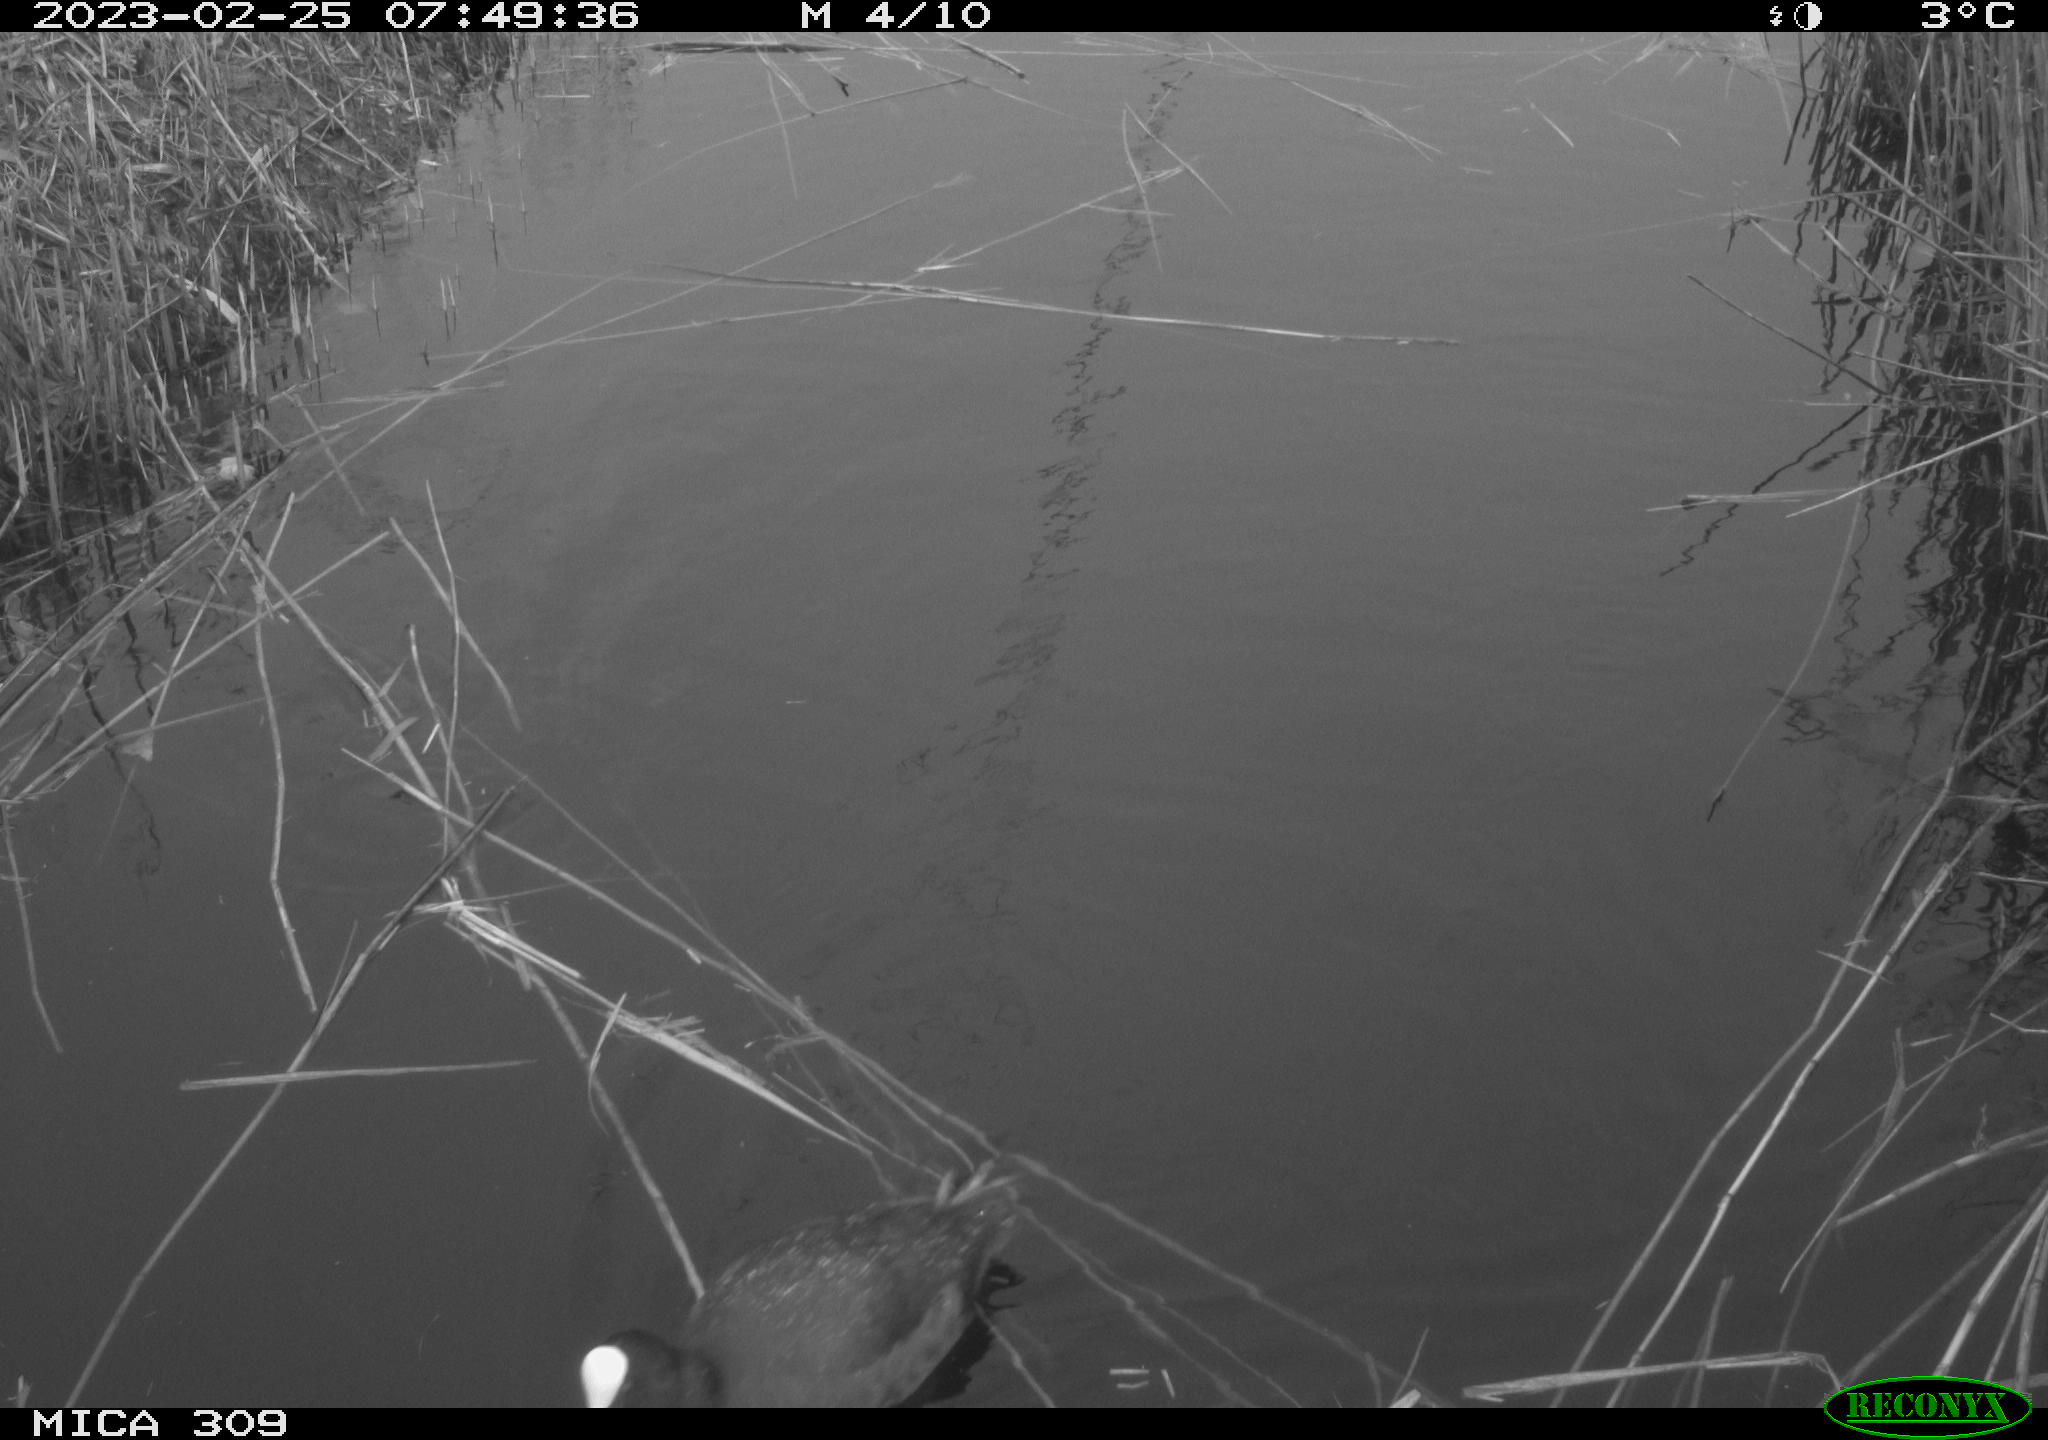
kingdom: Animalia
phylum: Chordata
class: Aves
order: Gruiformes
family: Rallidae
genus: Fulica
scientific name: Fulica atra
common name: Eurasian coot
